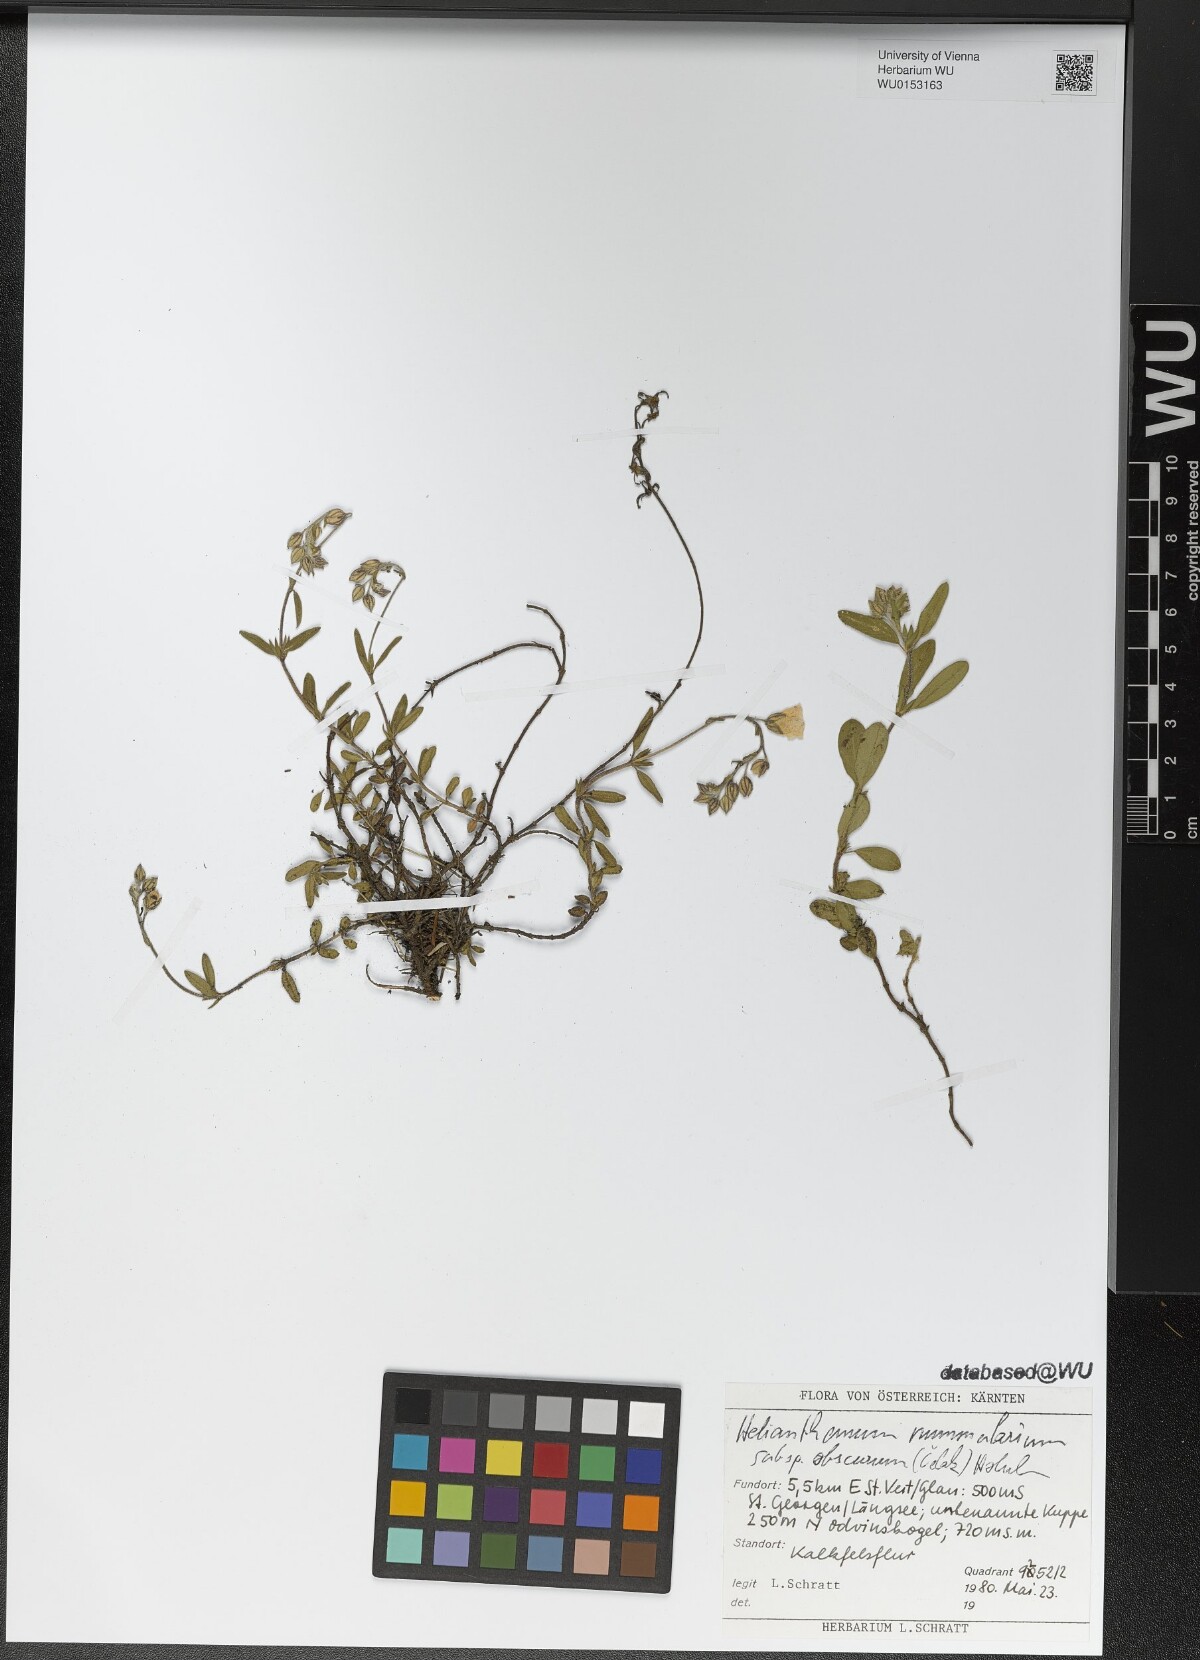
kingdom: Plantae
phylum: Tracheophyta
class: Magnoliopsida
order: Malvales
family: Cistaceae
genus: Helianthemum
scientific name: Helianthemum nummularium
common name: Common rock-rose
